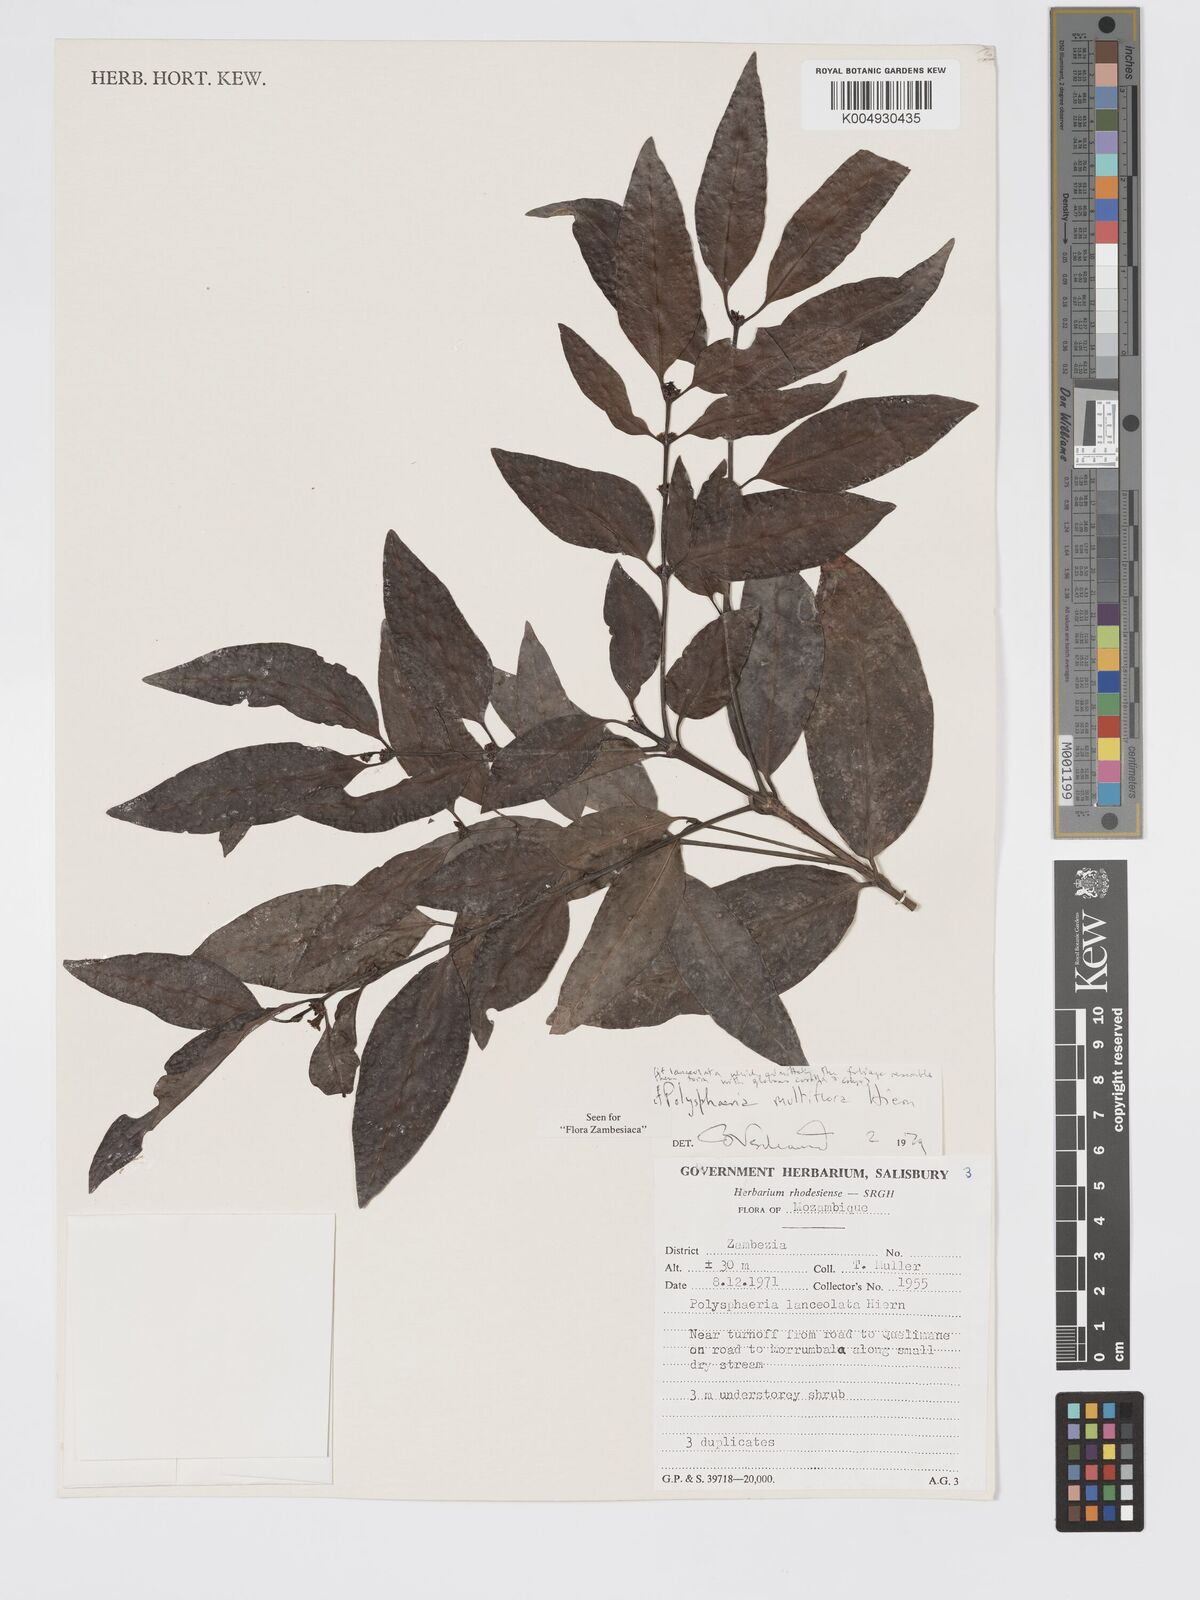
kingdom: Plantae
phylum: Tracheophyta
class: Magnoliopsida
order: Gentianales
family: Rubiaceae
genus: Polysphaeria
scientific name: Polysphaeria
